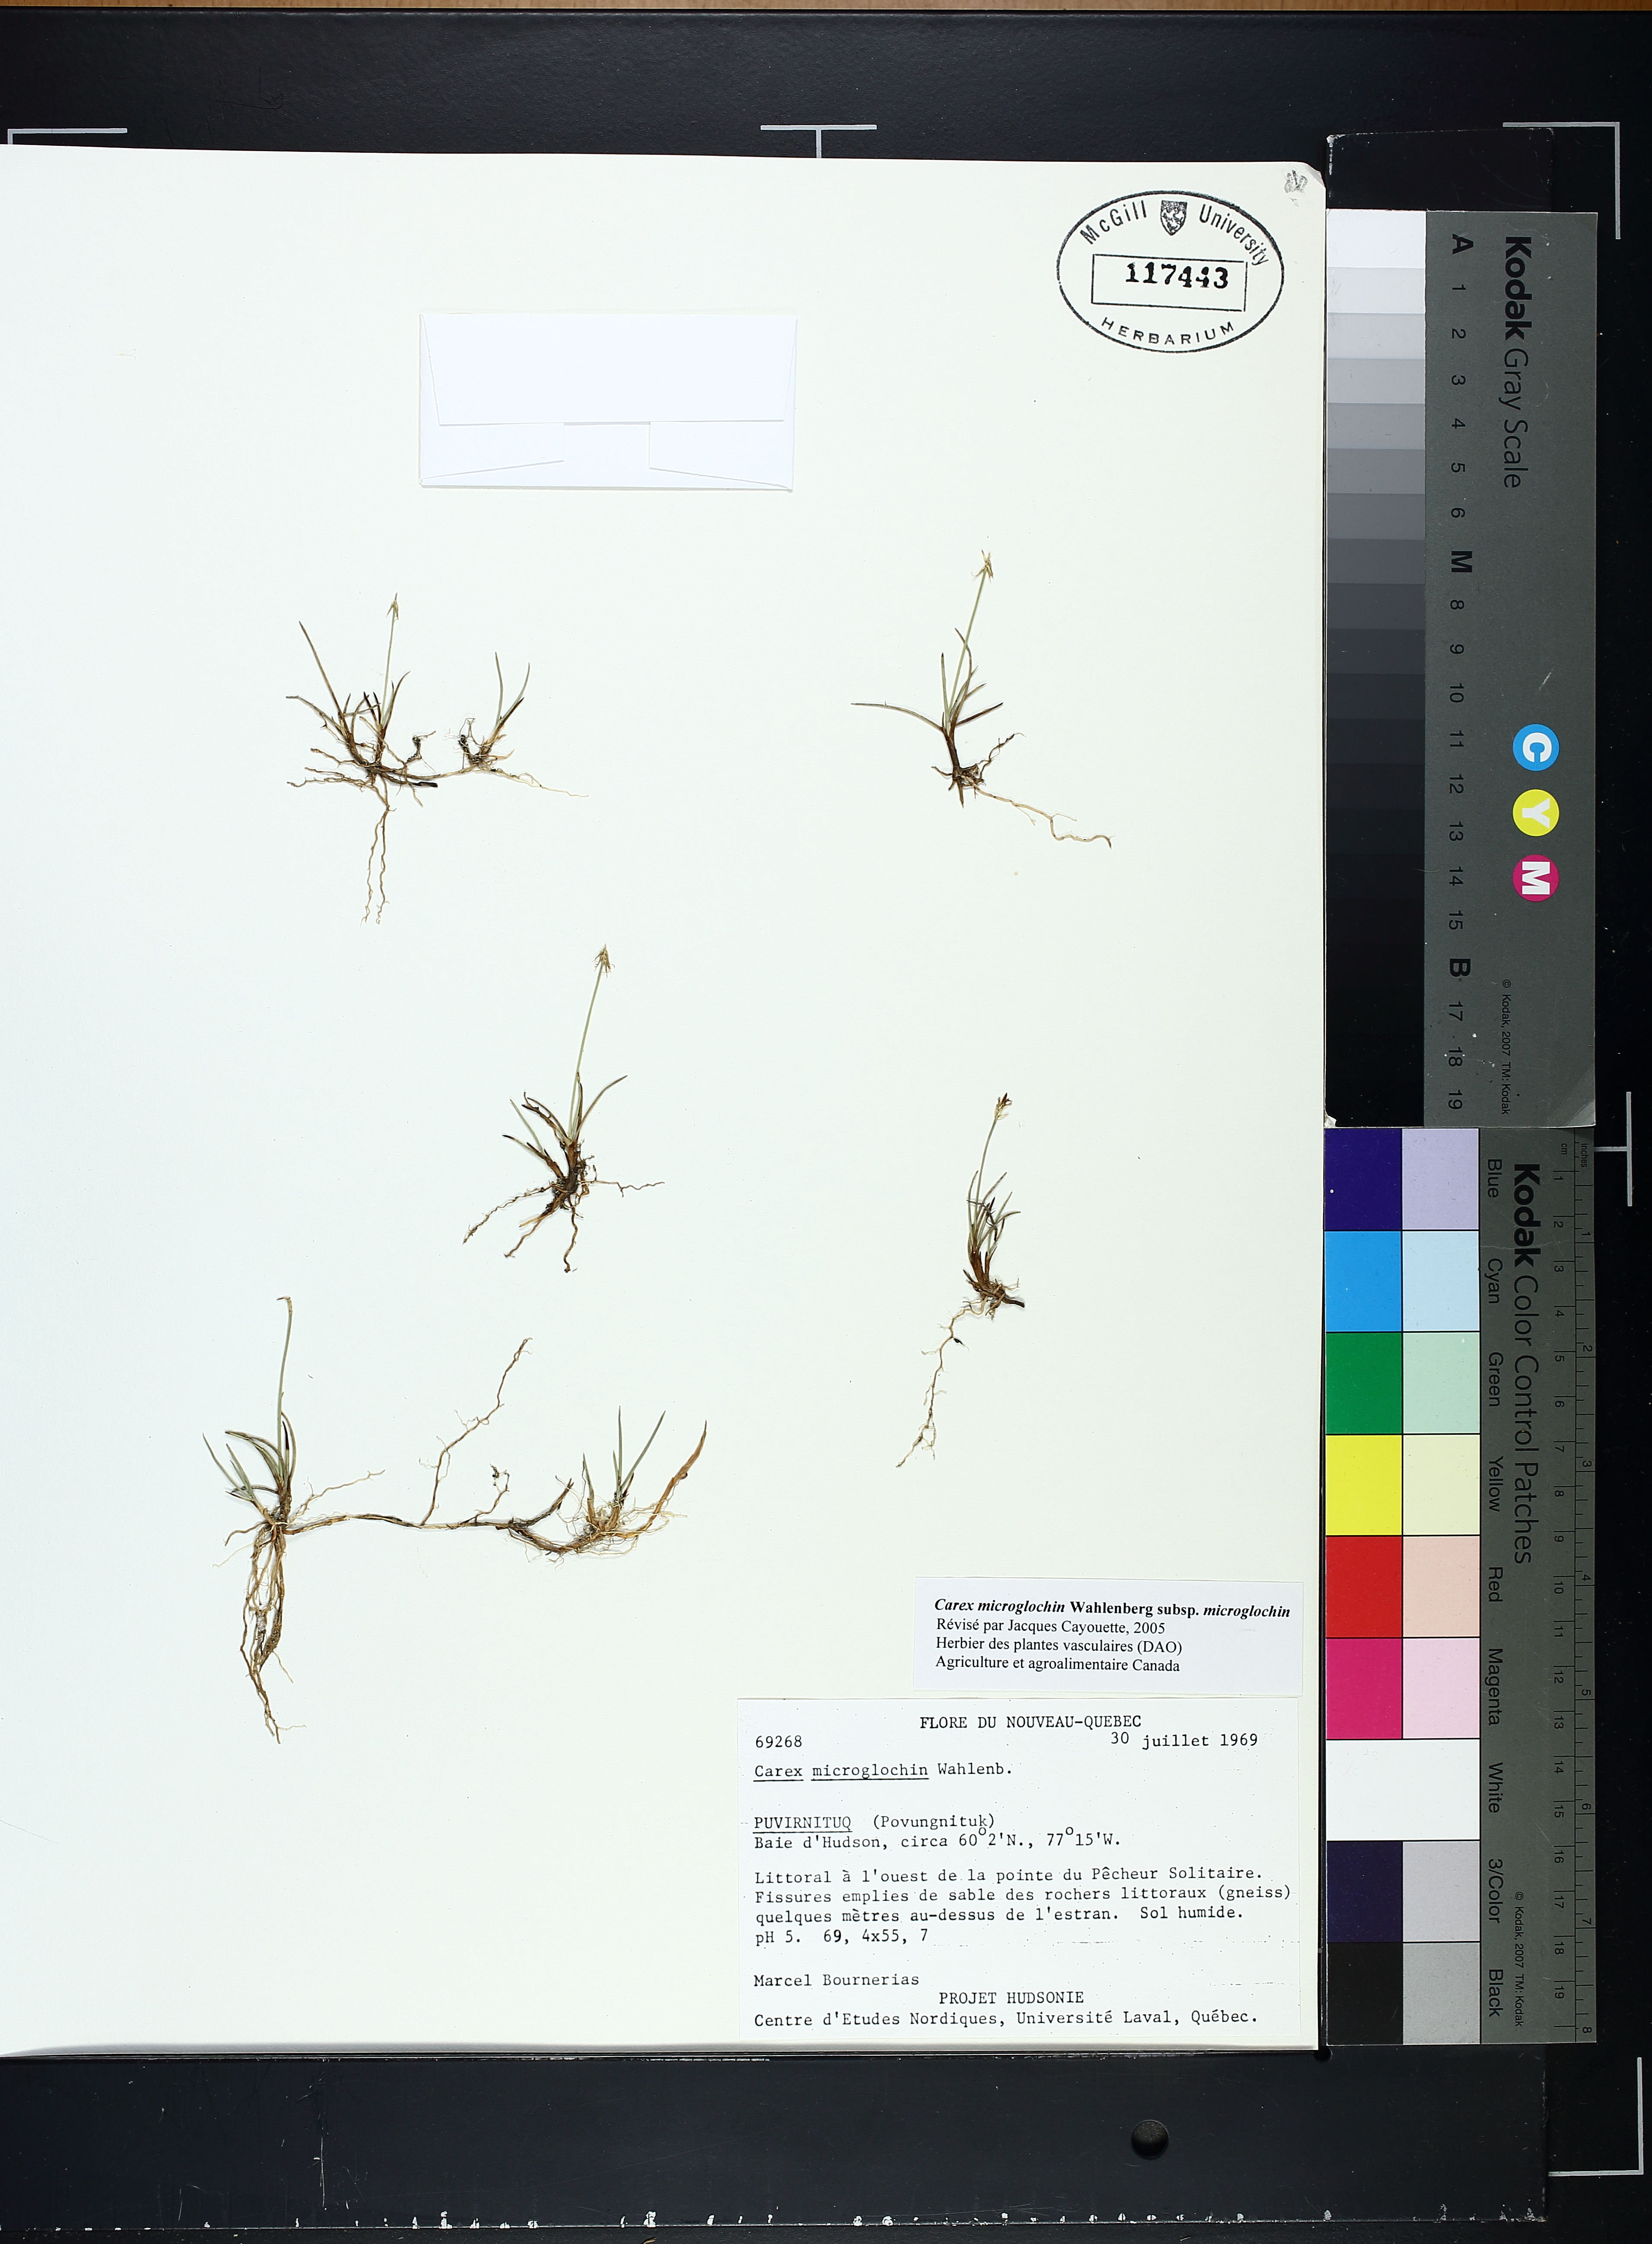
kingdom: Plantae
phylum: Tracheophyta
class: Liliopsida
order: Poales
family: Cyperaceae
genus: Carex
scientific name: Carex microglochin
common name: Bristle sedge
